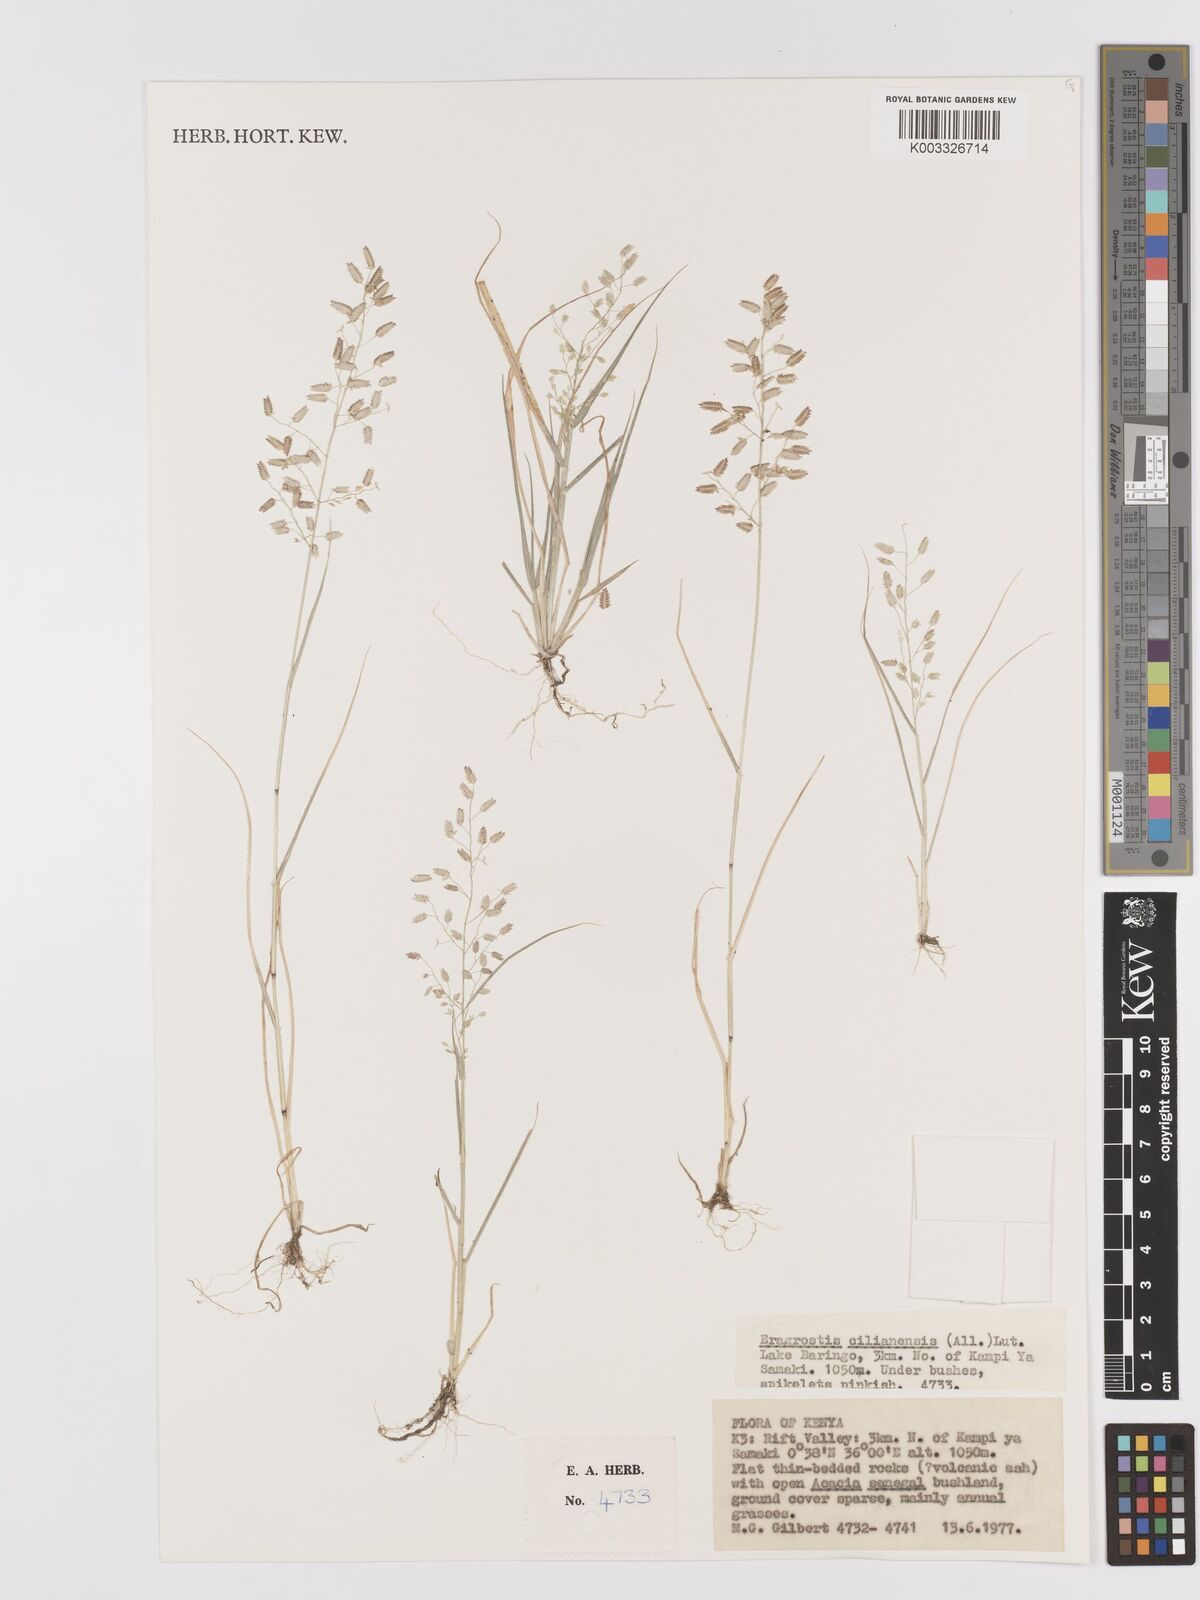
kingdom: Plantae
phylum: Tracheophyta
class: Liliopsida
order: Poales
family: Poaceae
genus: Eragrostis
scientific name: Eragrostis cilianensis
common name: Stinkgrass
